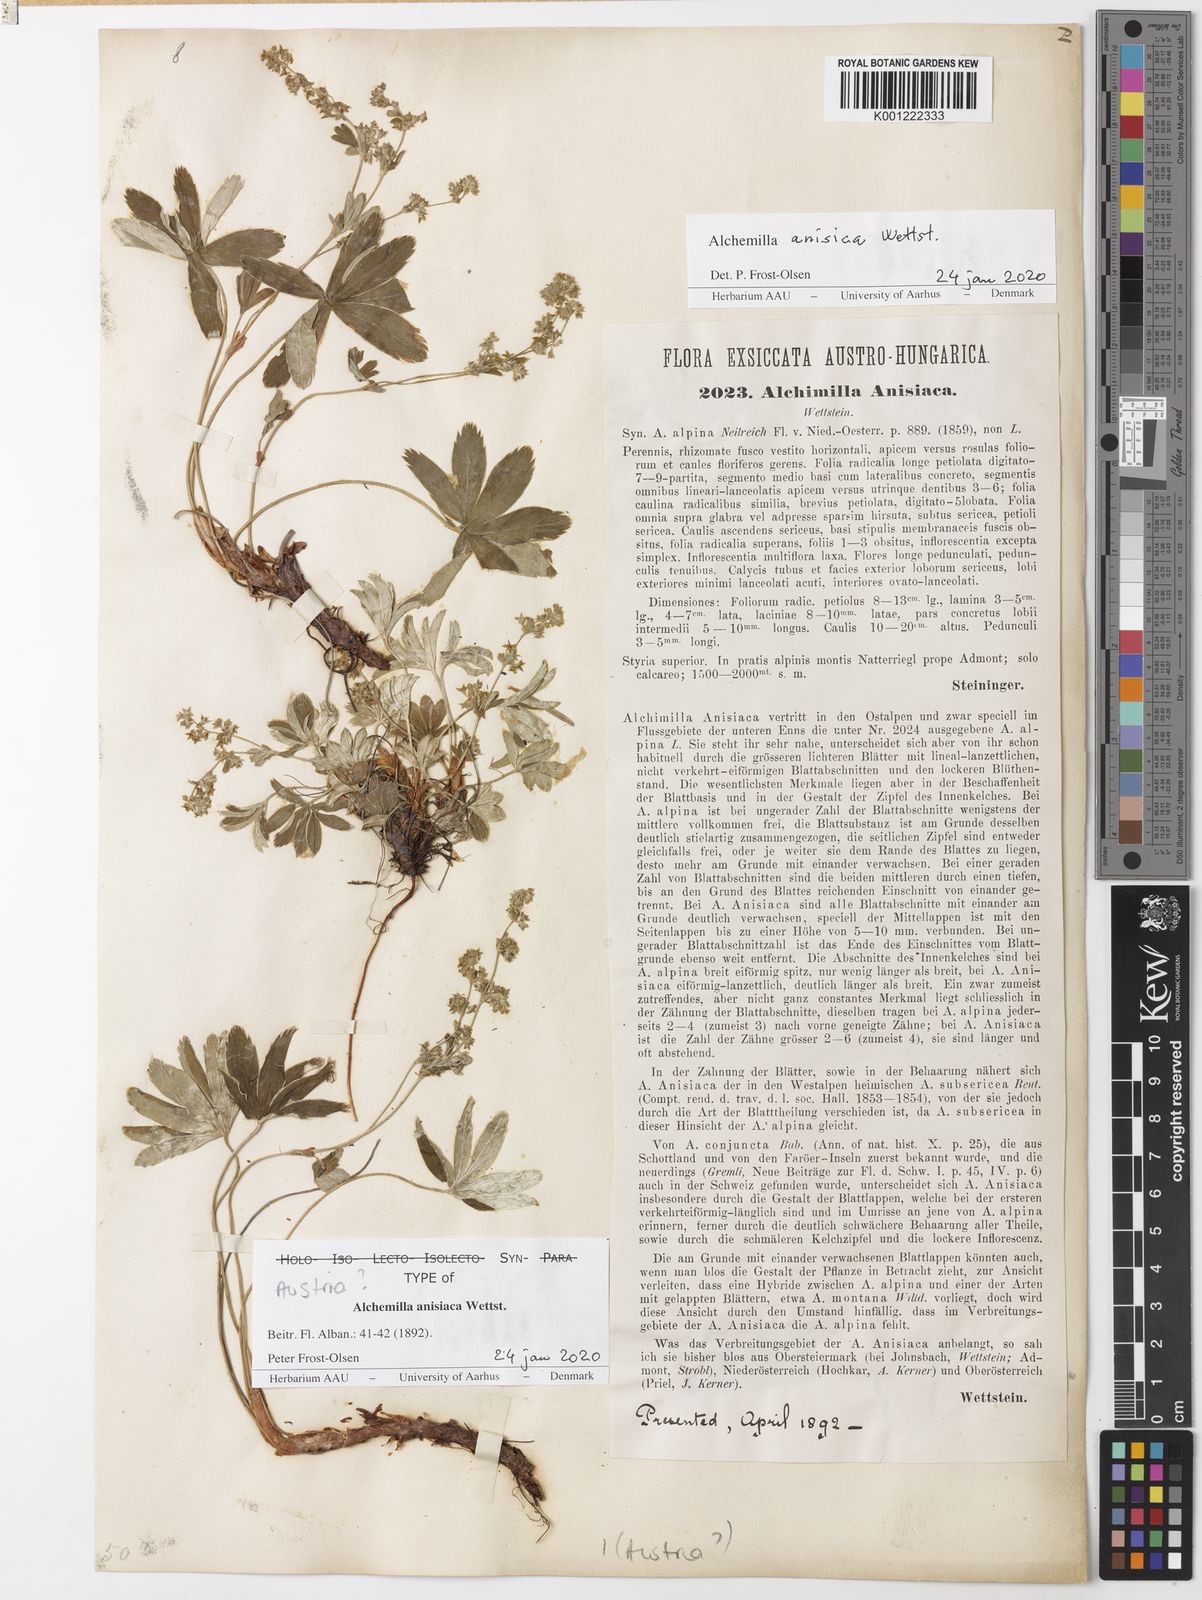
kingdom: Plantae
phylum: Tracheophyta
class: Magnoliopsida
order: Rosales
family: Rosaceae
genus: Alchemilla
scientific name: Alchemilla anisiaca
